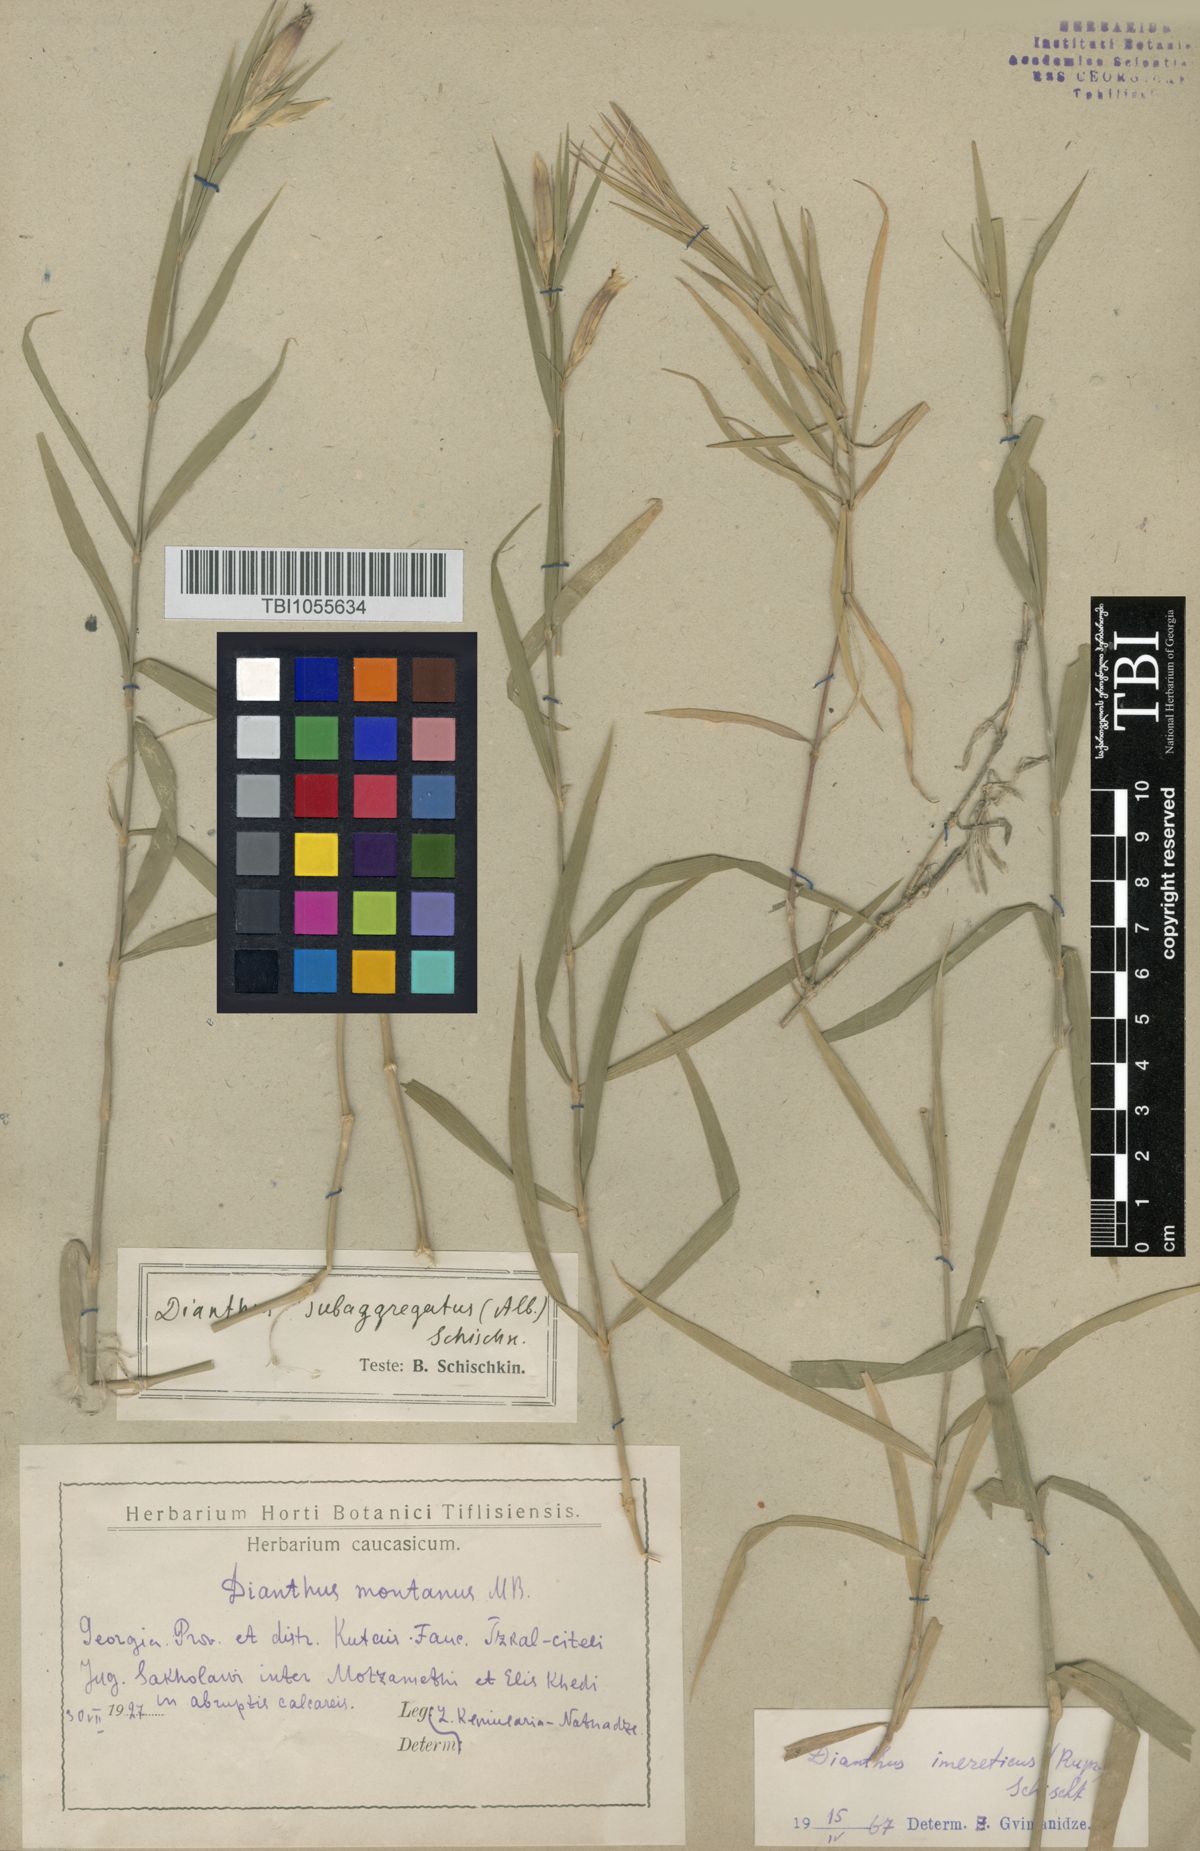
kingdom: Plantae
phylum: Tracheophyta
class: Magnoliopsida
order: Caryophyllales
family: Caryophyllaceae
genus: Dianthus
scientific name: Dianthus imereticus
